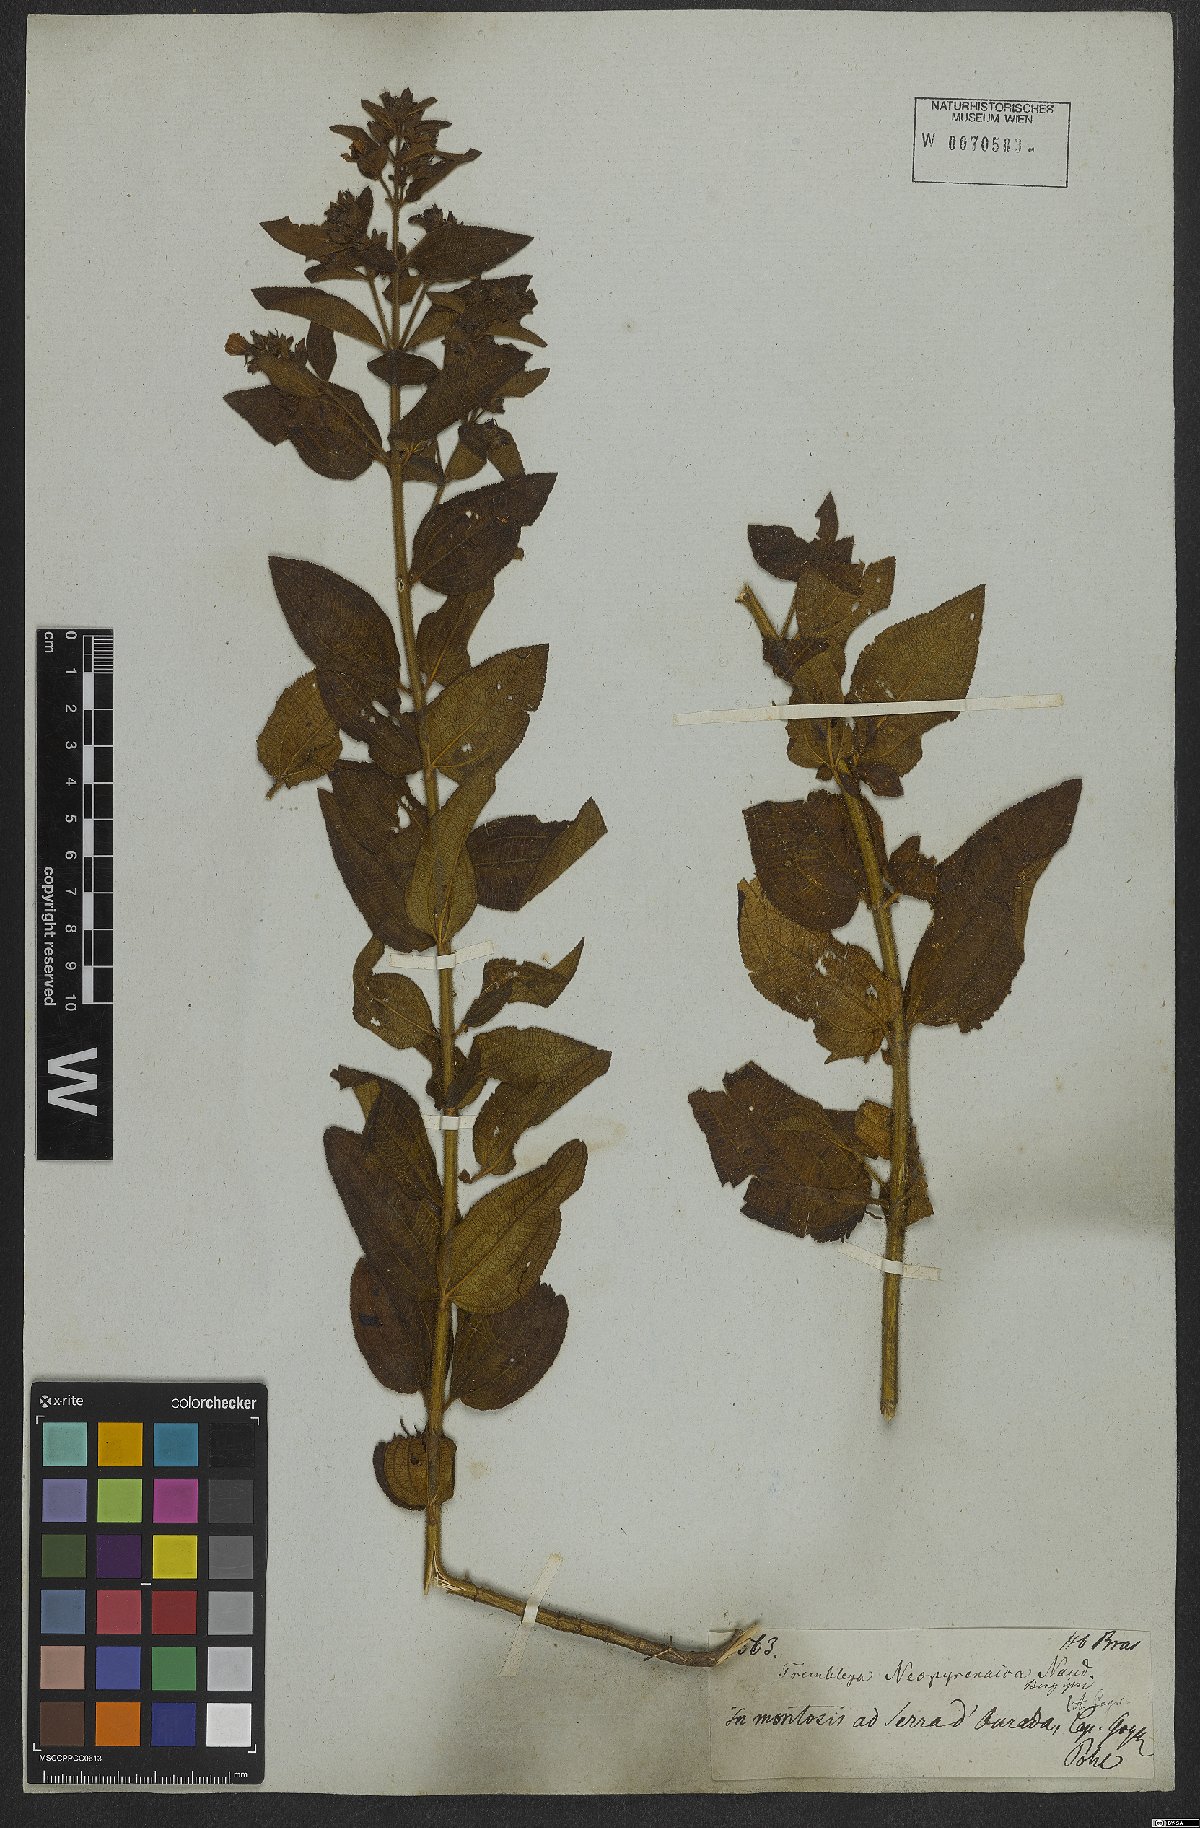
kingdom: Plantae
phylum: Tracheophyta
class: Magnoliopsida
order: Myrtales
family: Melastomataceae
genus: Microlicia
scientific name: Microlicia neopyrenaica
